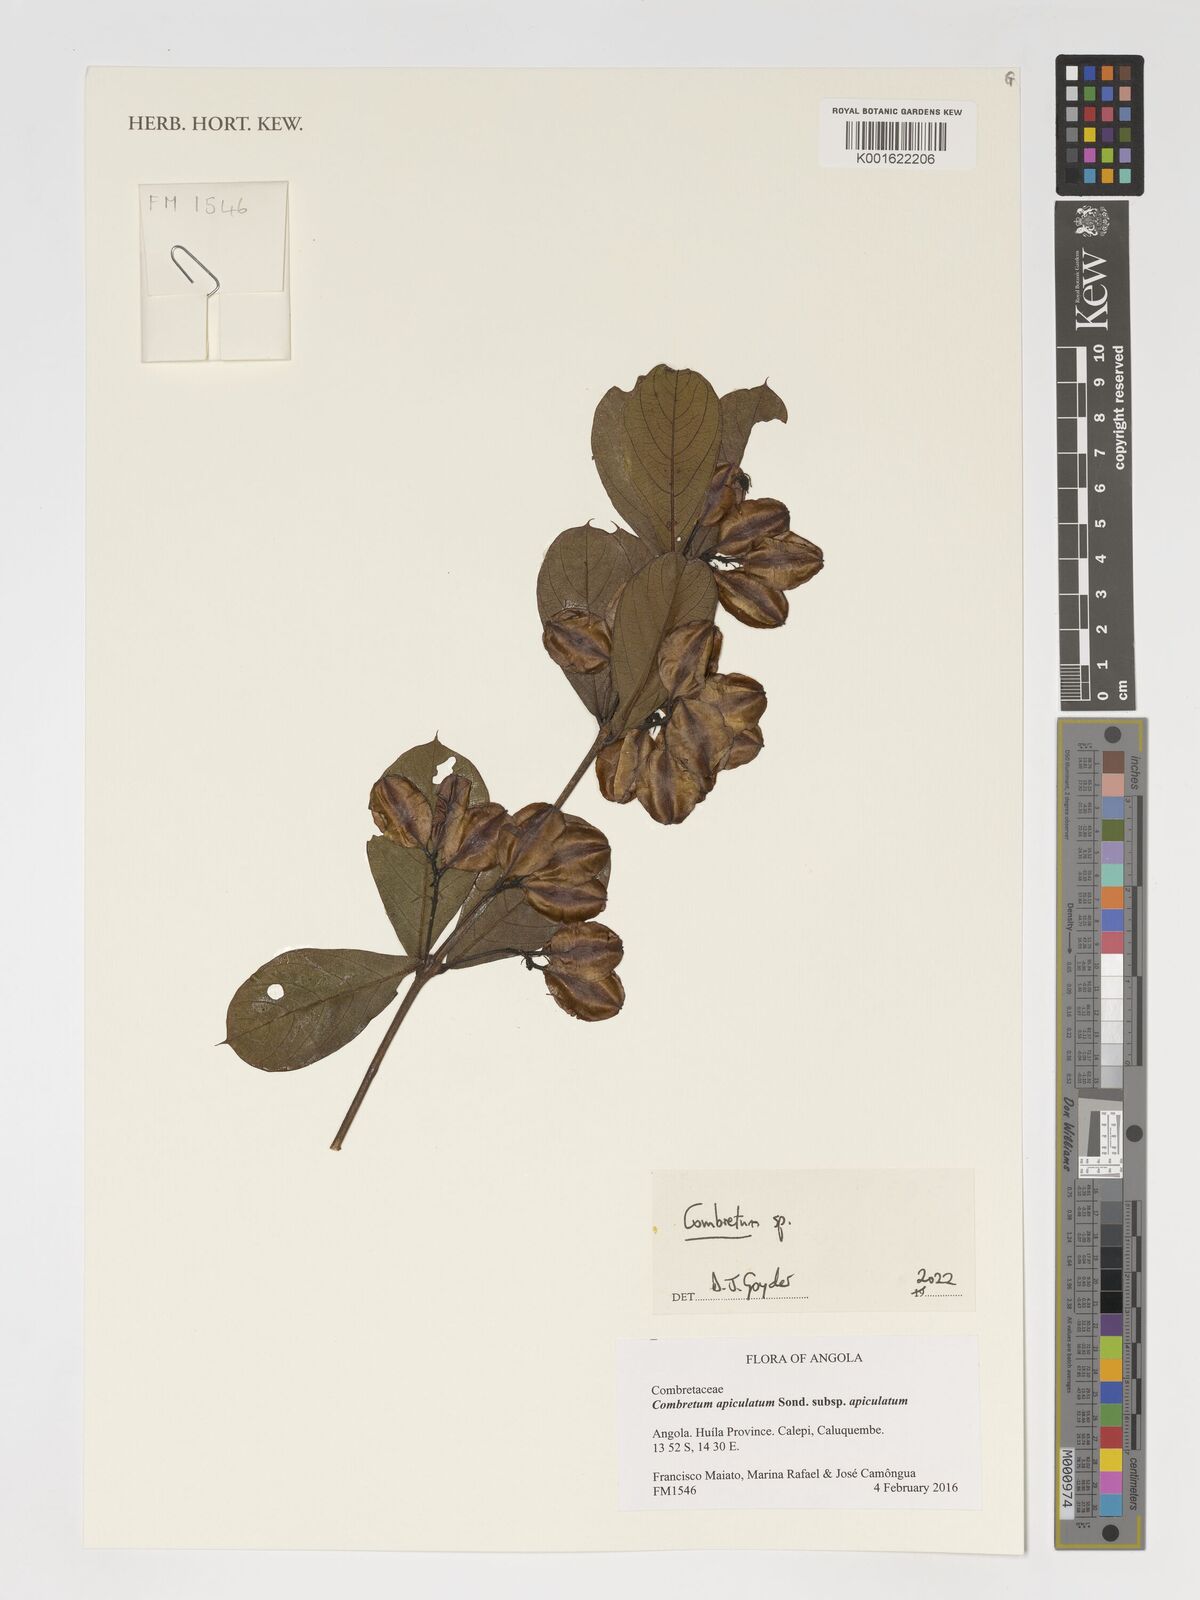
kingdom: Plantae
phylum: Tracheophyta
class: Magnoliopsida
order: Myrtales
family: Combretaceae
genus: Combretum
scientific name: Combretum
